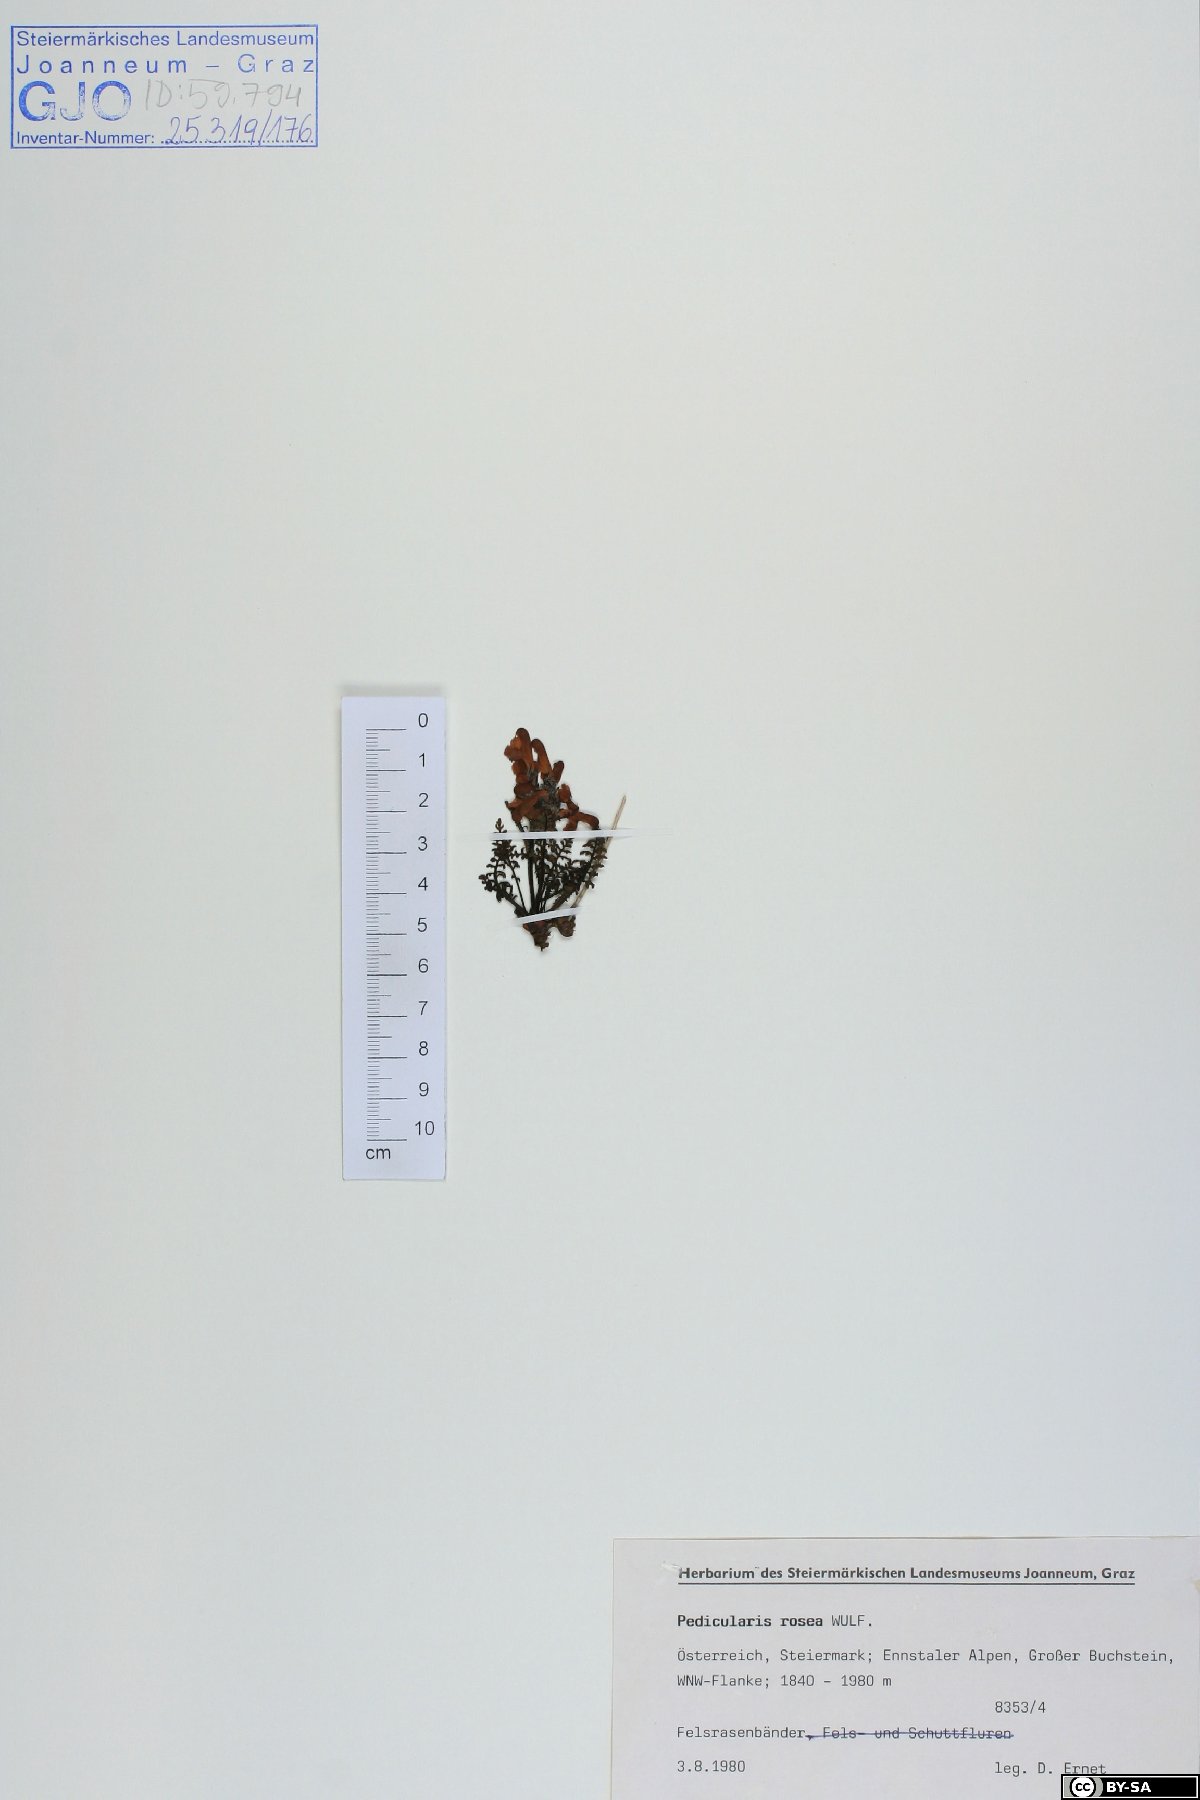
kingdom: Plantae
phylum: Tracheophyta
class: Magnoliopsida
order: Lamiales
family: Orobanchaceae
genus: Pedicularis
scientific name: Pedicularis rosea
